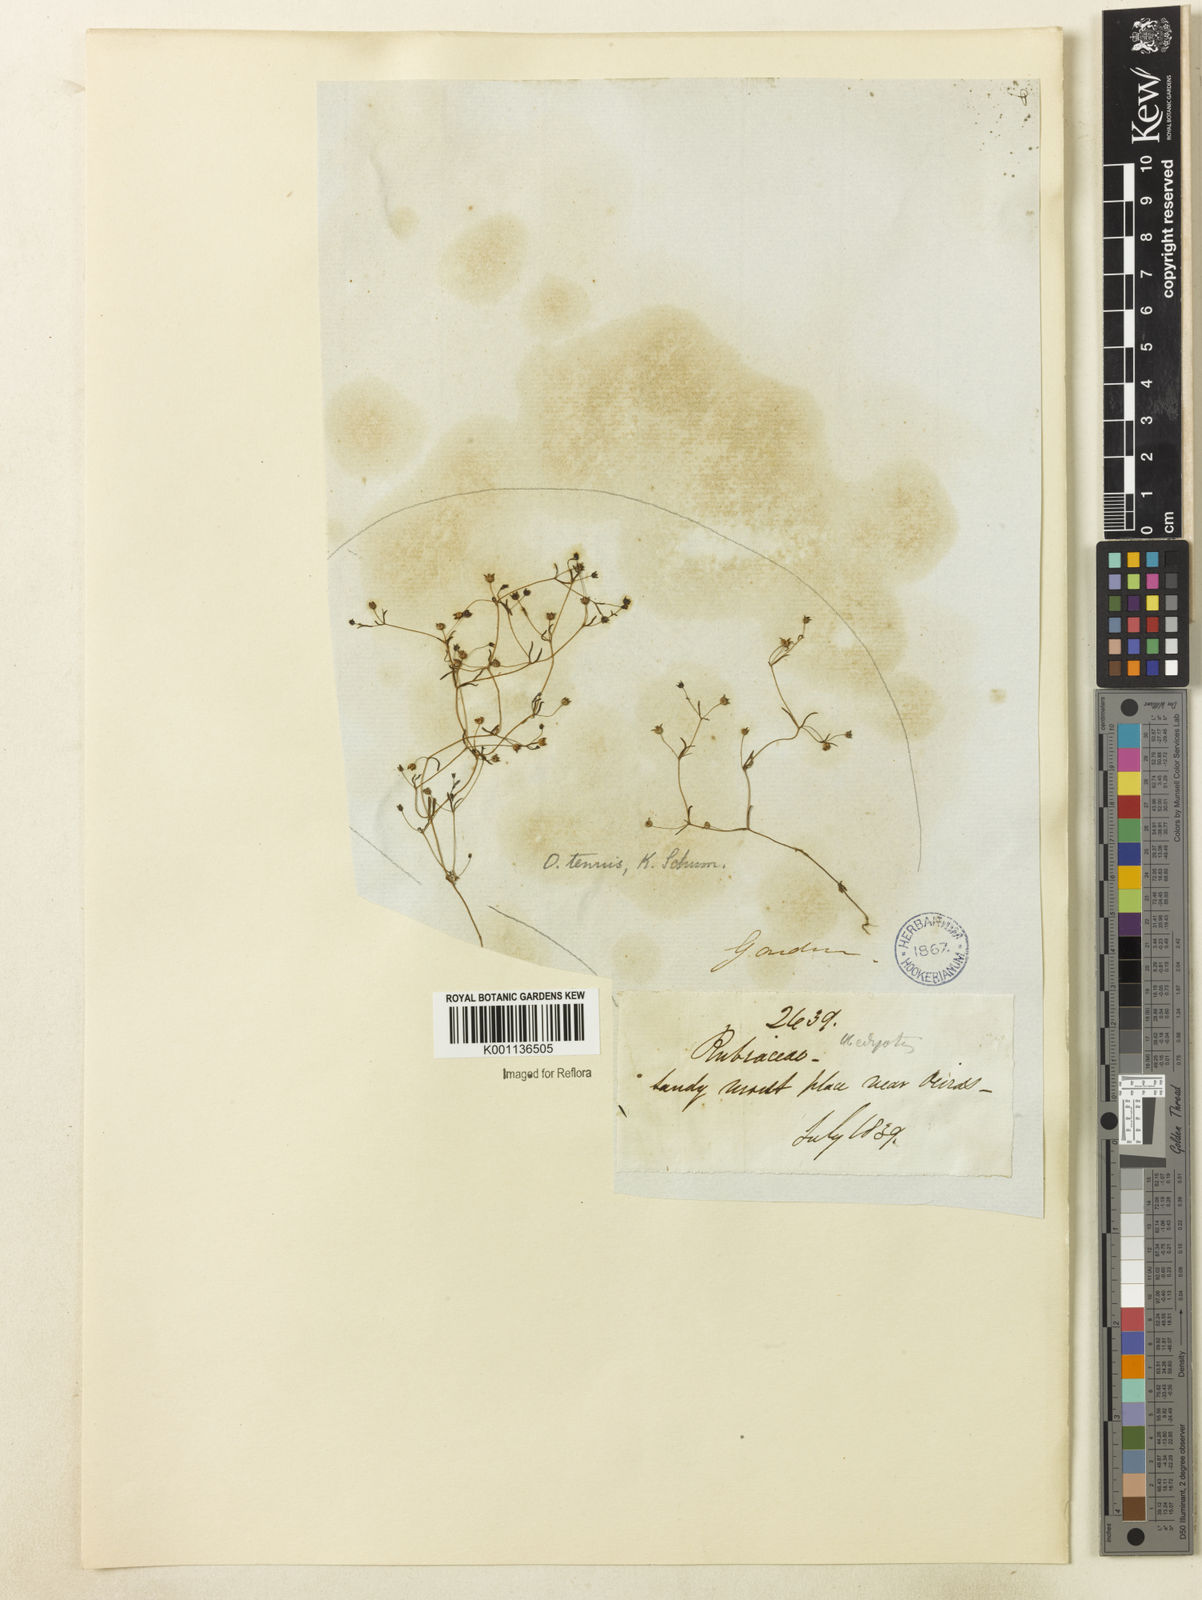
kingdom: Plantae
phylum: Tracheophyta
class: Magnoliopsida
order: Gentianales
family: Rubiaceae
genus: Oldenlandia
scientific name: Oldenlandia tenuis
